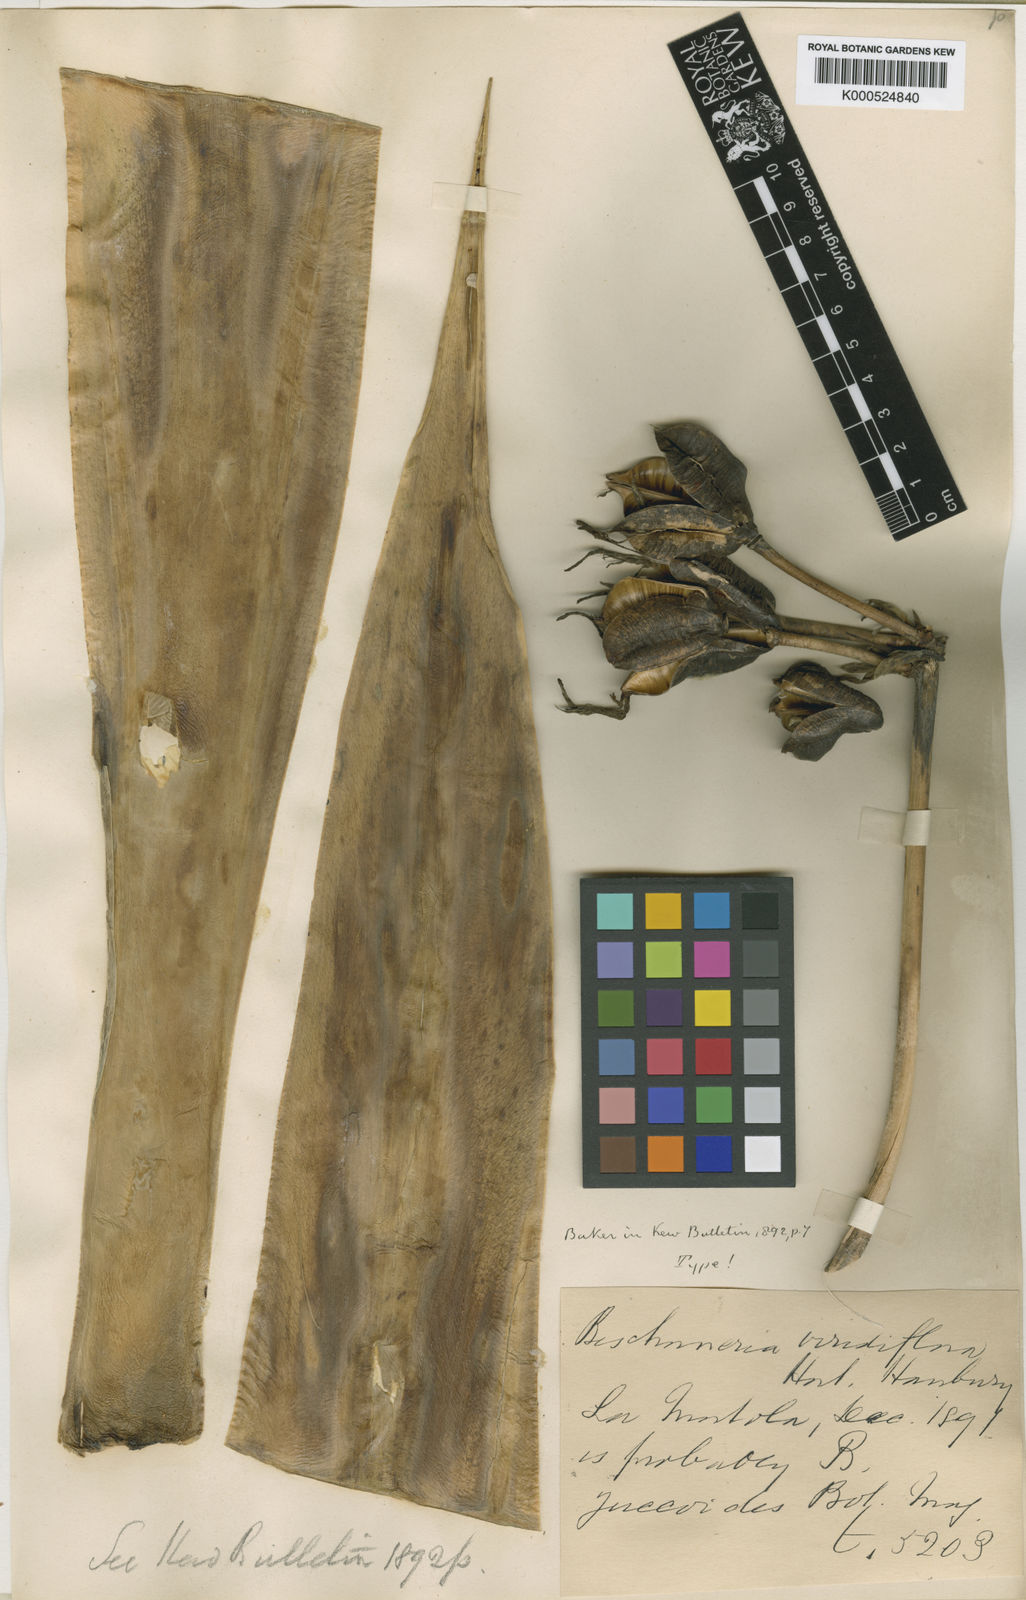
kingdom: Plantae
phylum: Tracheophyta
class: Liliopsida
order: Asparagales
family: Asparagaceae
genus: Beschorneria
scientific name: Beschorneria
